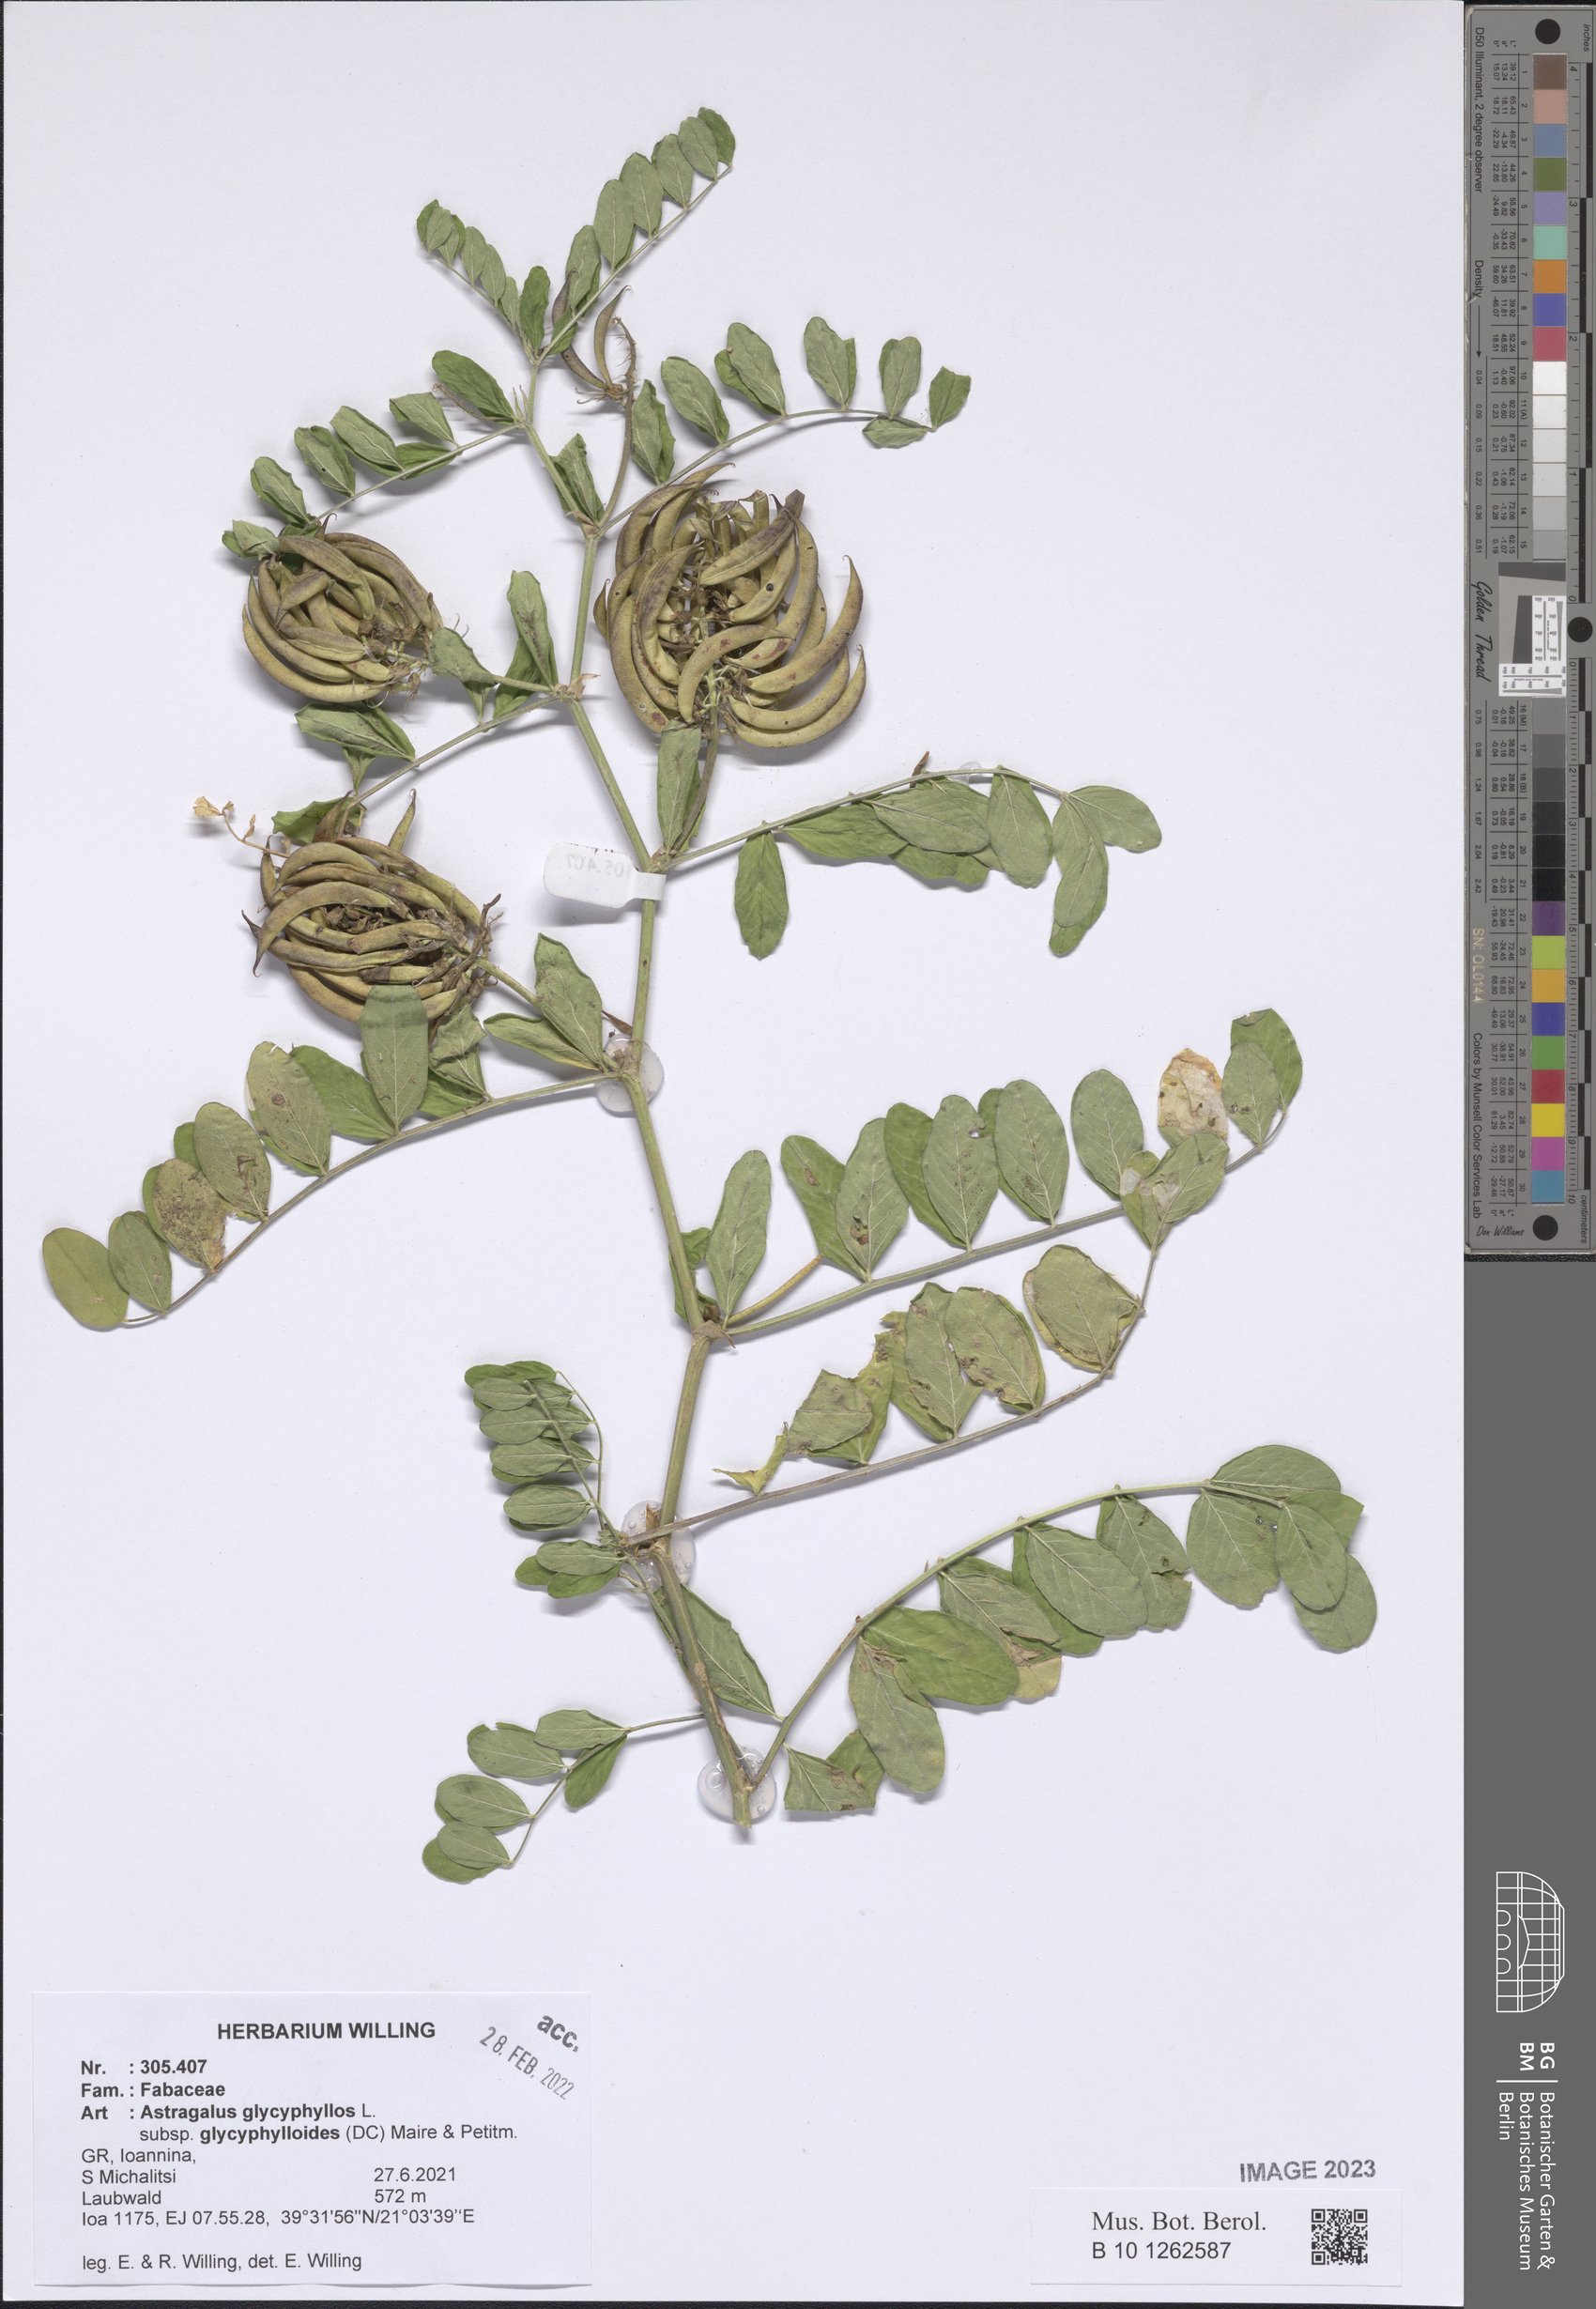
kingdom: Plantae
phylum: Tracheophyta
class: Magnoliopsida
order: Fabales
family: Fabaceae
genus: Astragalus
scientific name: Astragalus glycyphylloides
